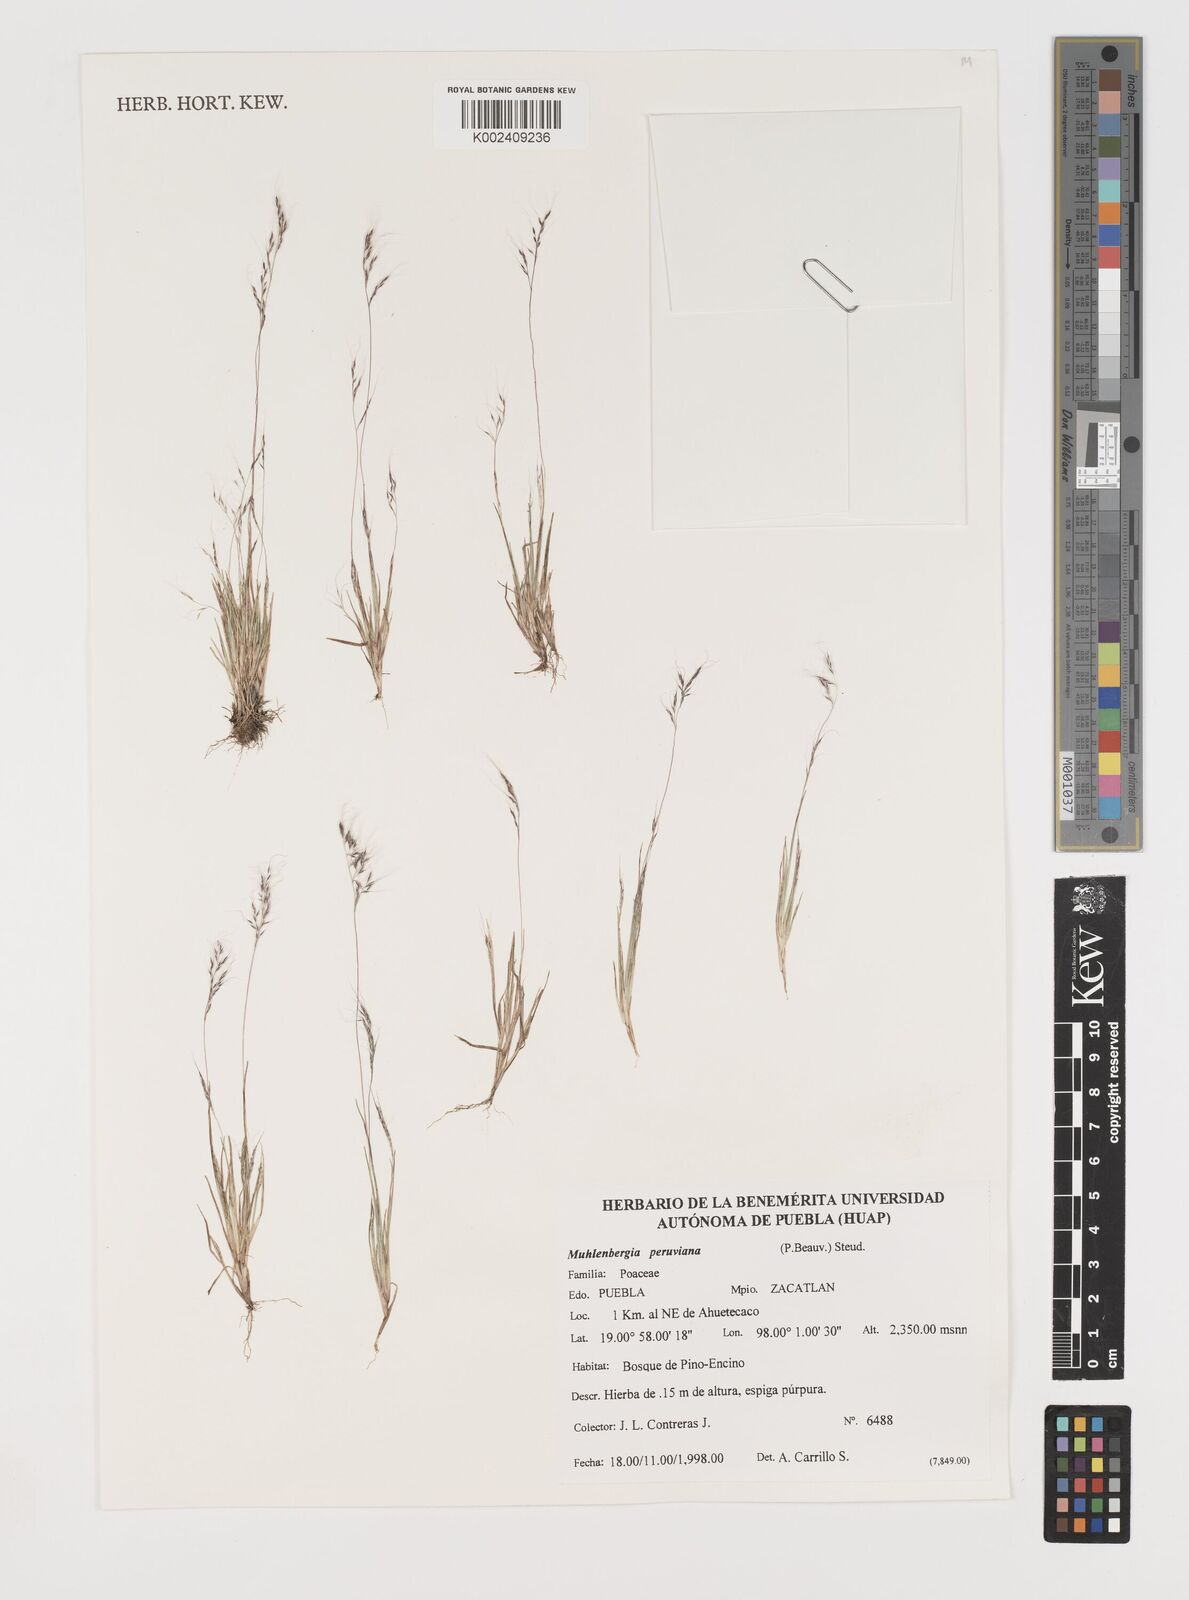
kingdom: Plantae
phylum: Tracheophyta
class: Liliopsida
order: Poales
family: Poaceae
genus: Muhlenbergia
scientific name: Muhlenbergia peruviana
